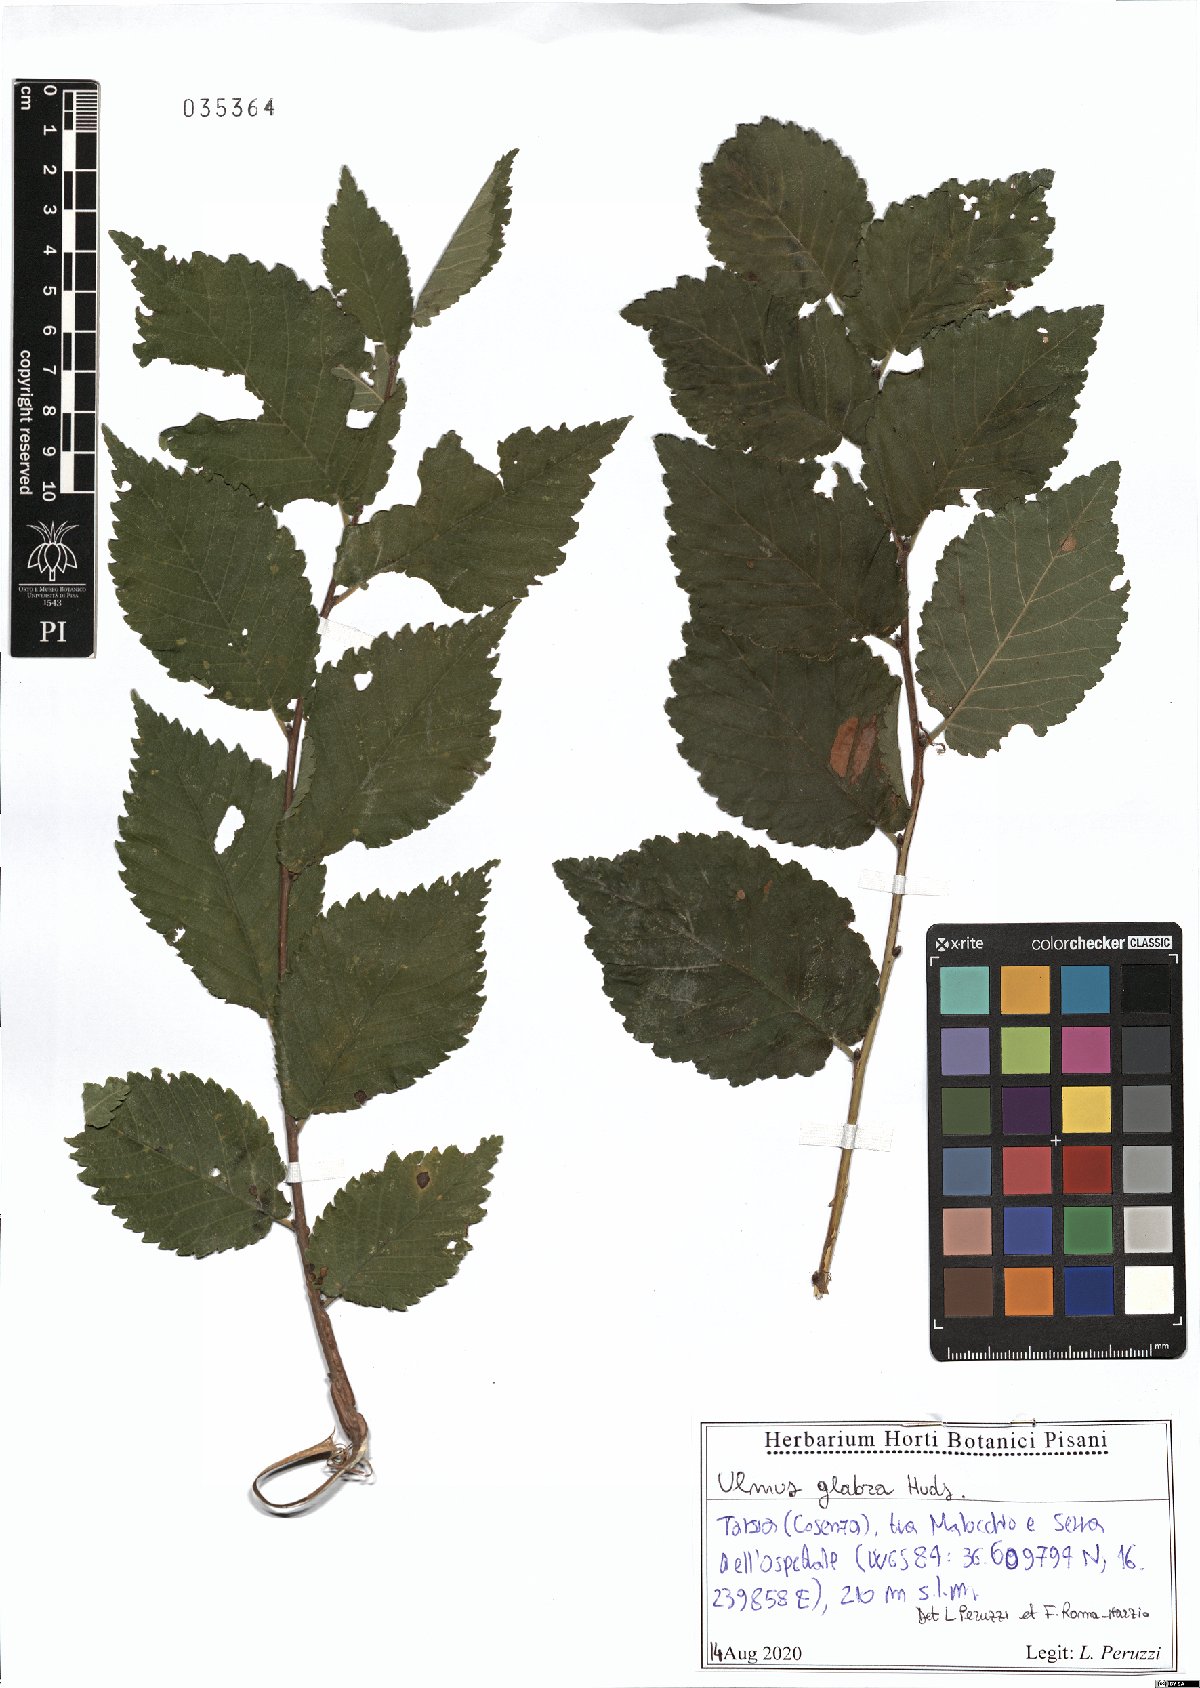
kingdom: Plantae
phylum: Tracheophyta
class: Magnoliopsida
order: Rosales
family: Ulmaceae
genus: Ulmus
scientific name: Ulmus glabra
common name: Wych elm
